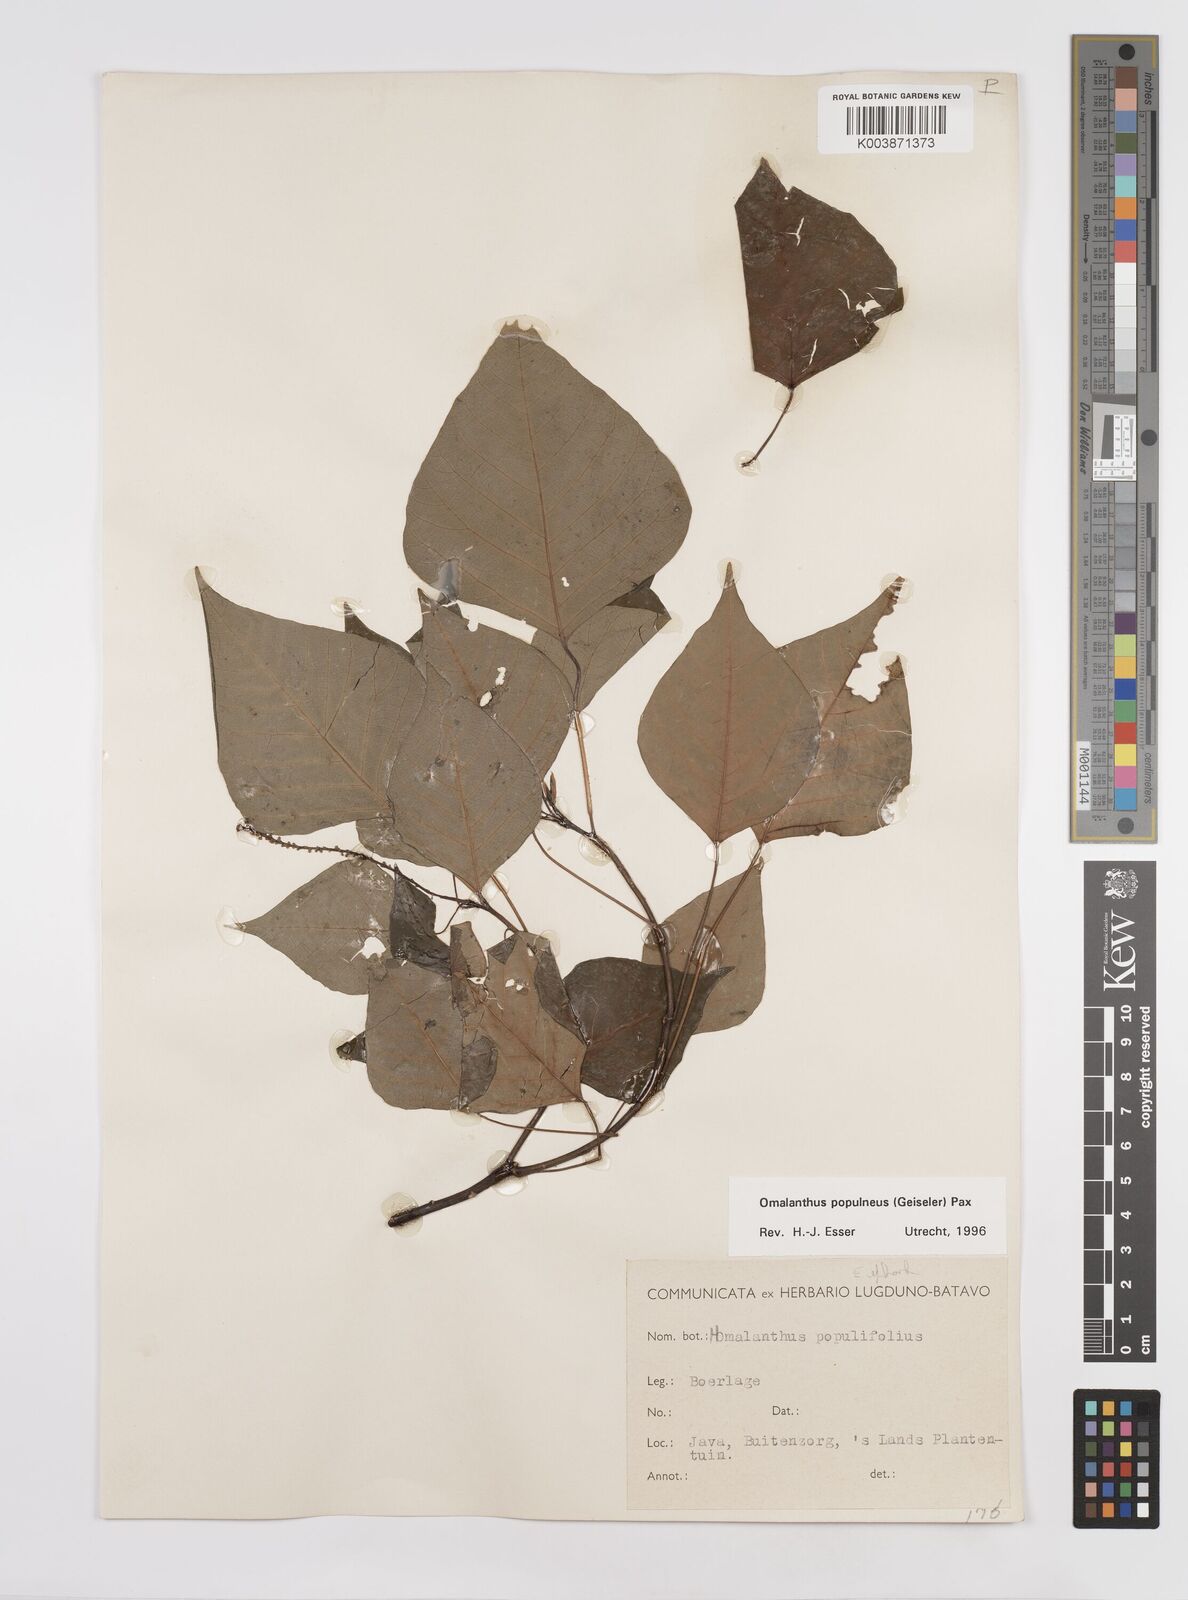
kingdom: Plantae
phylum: Tracheophyta
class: Magnoliopsida
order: Malpighiales
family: Euphorbiaceae
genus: Homalanthus
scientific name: Homalanthus populneus
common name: Spurge
